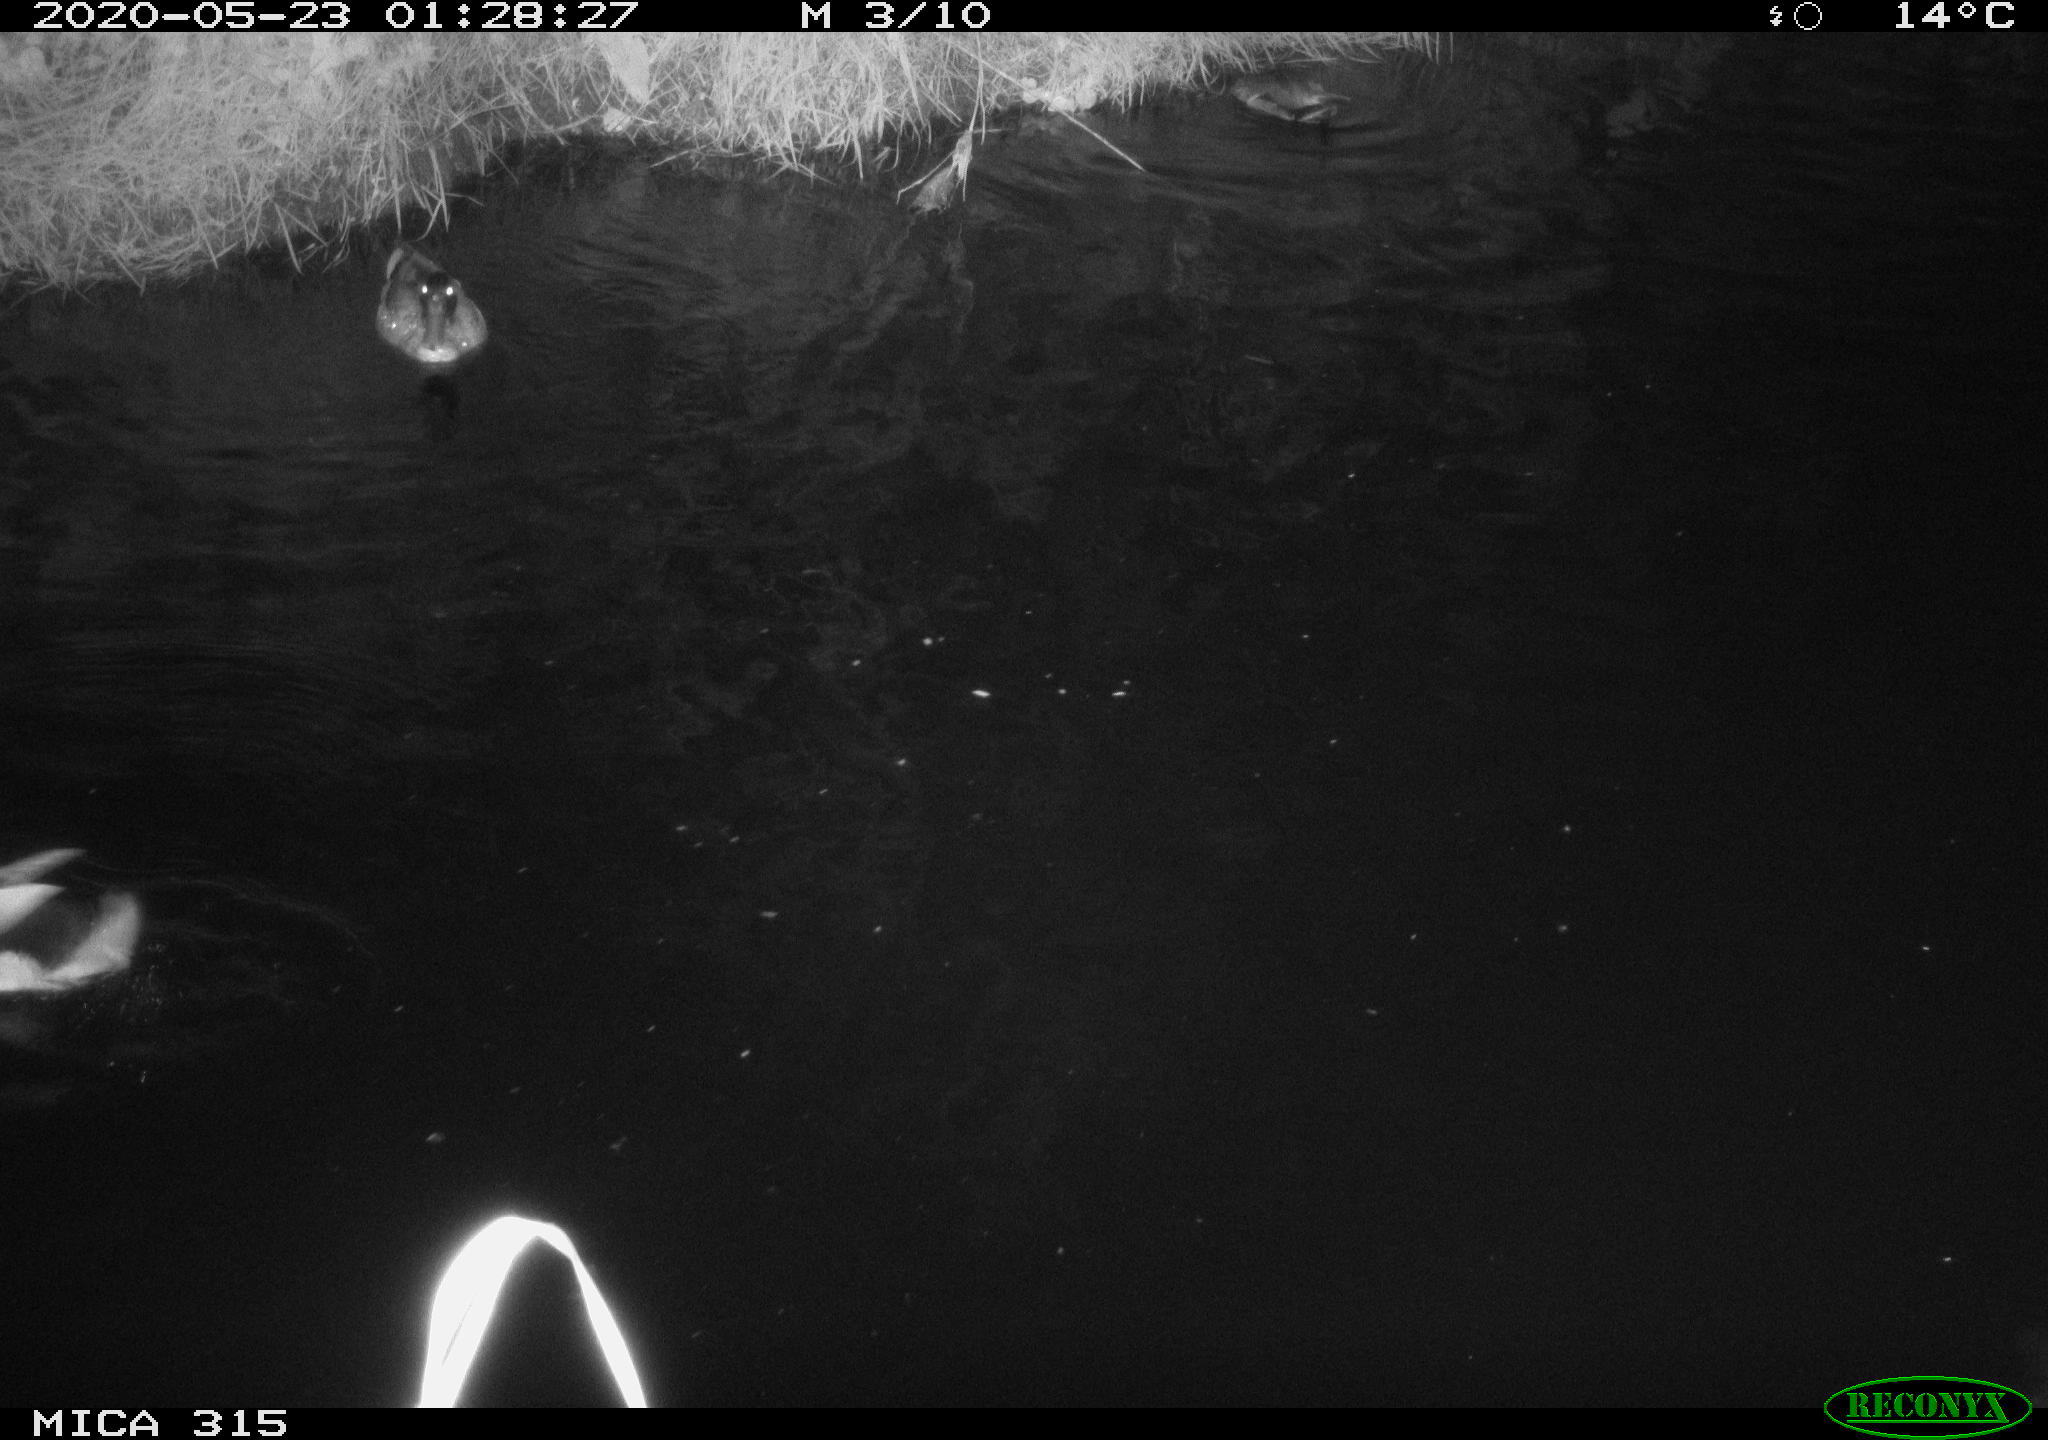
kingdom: Animalia
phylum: Chordata
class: Aves
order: Anseriformes
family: Anatidae
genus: Anas
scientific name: Anas platyrhynchos
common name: Mallard
